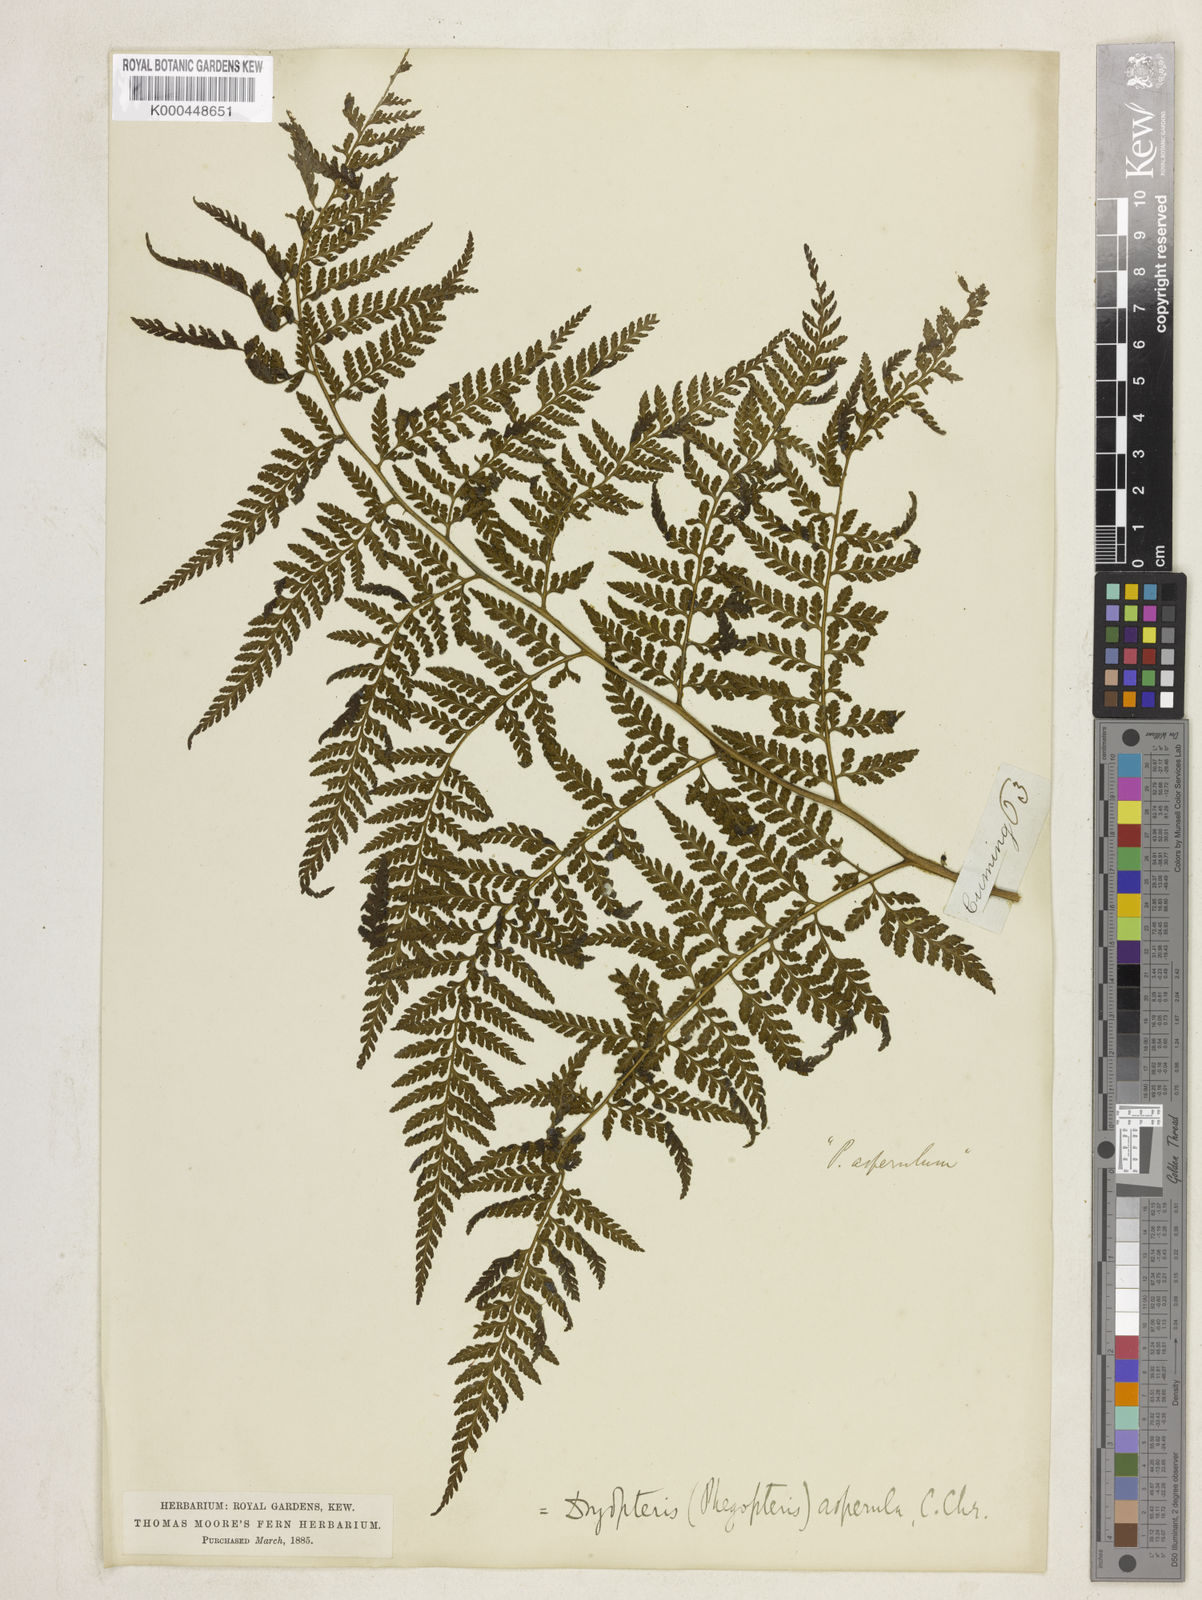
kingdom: Plantae
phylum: Tracheophyta
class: Polypodiopsida
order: Polypodiales
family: Dennstaedtiaceae
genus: Microlepia
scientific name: Microlepia
